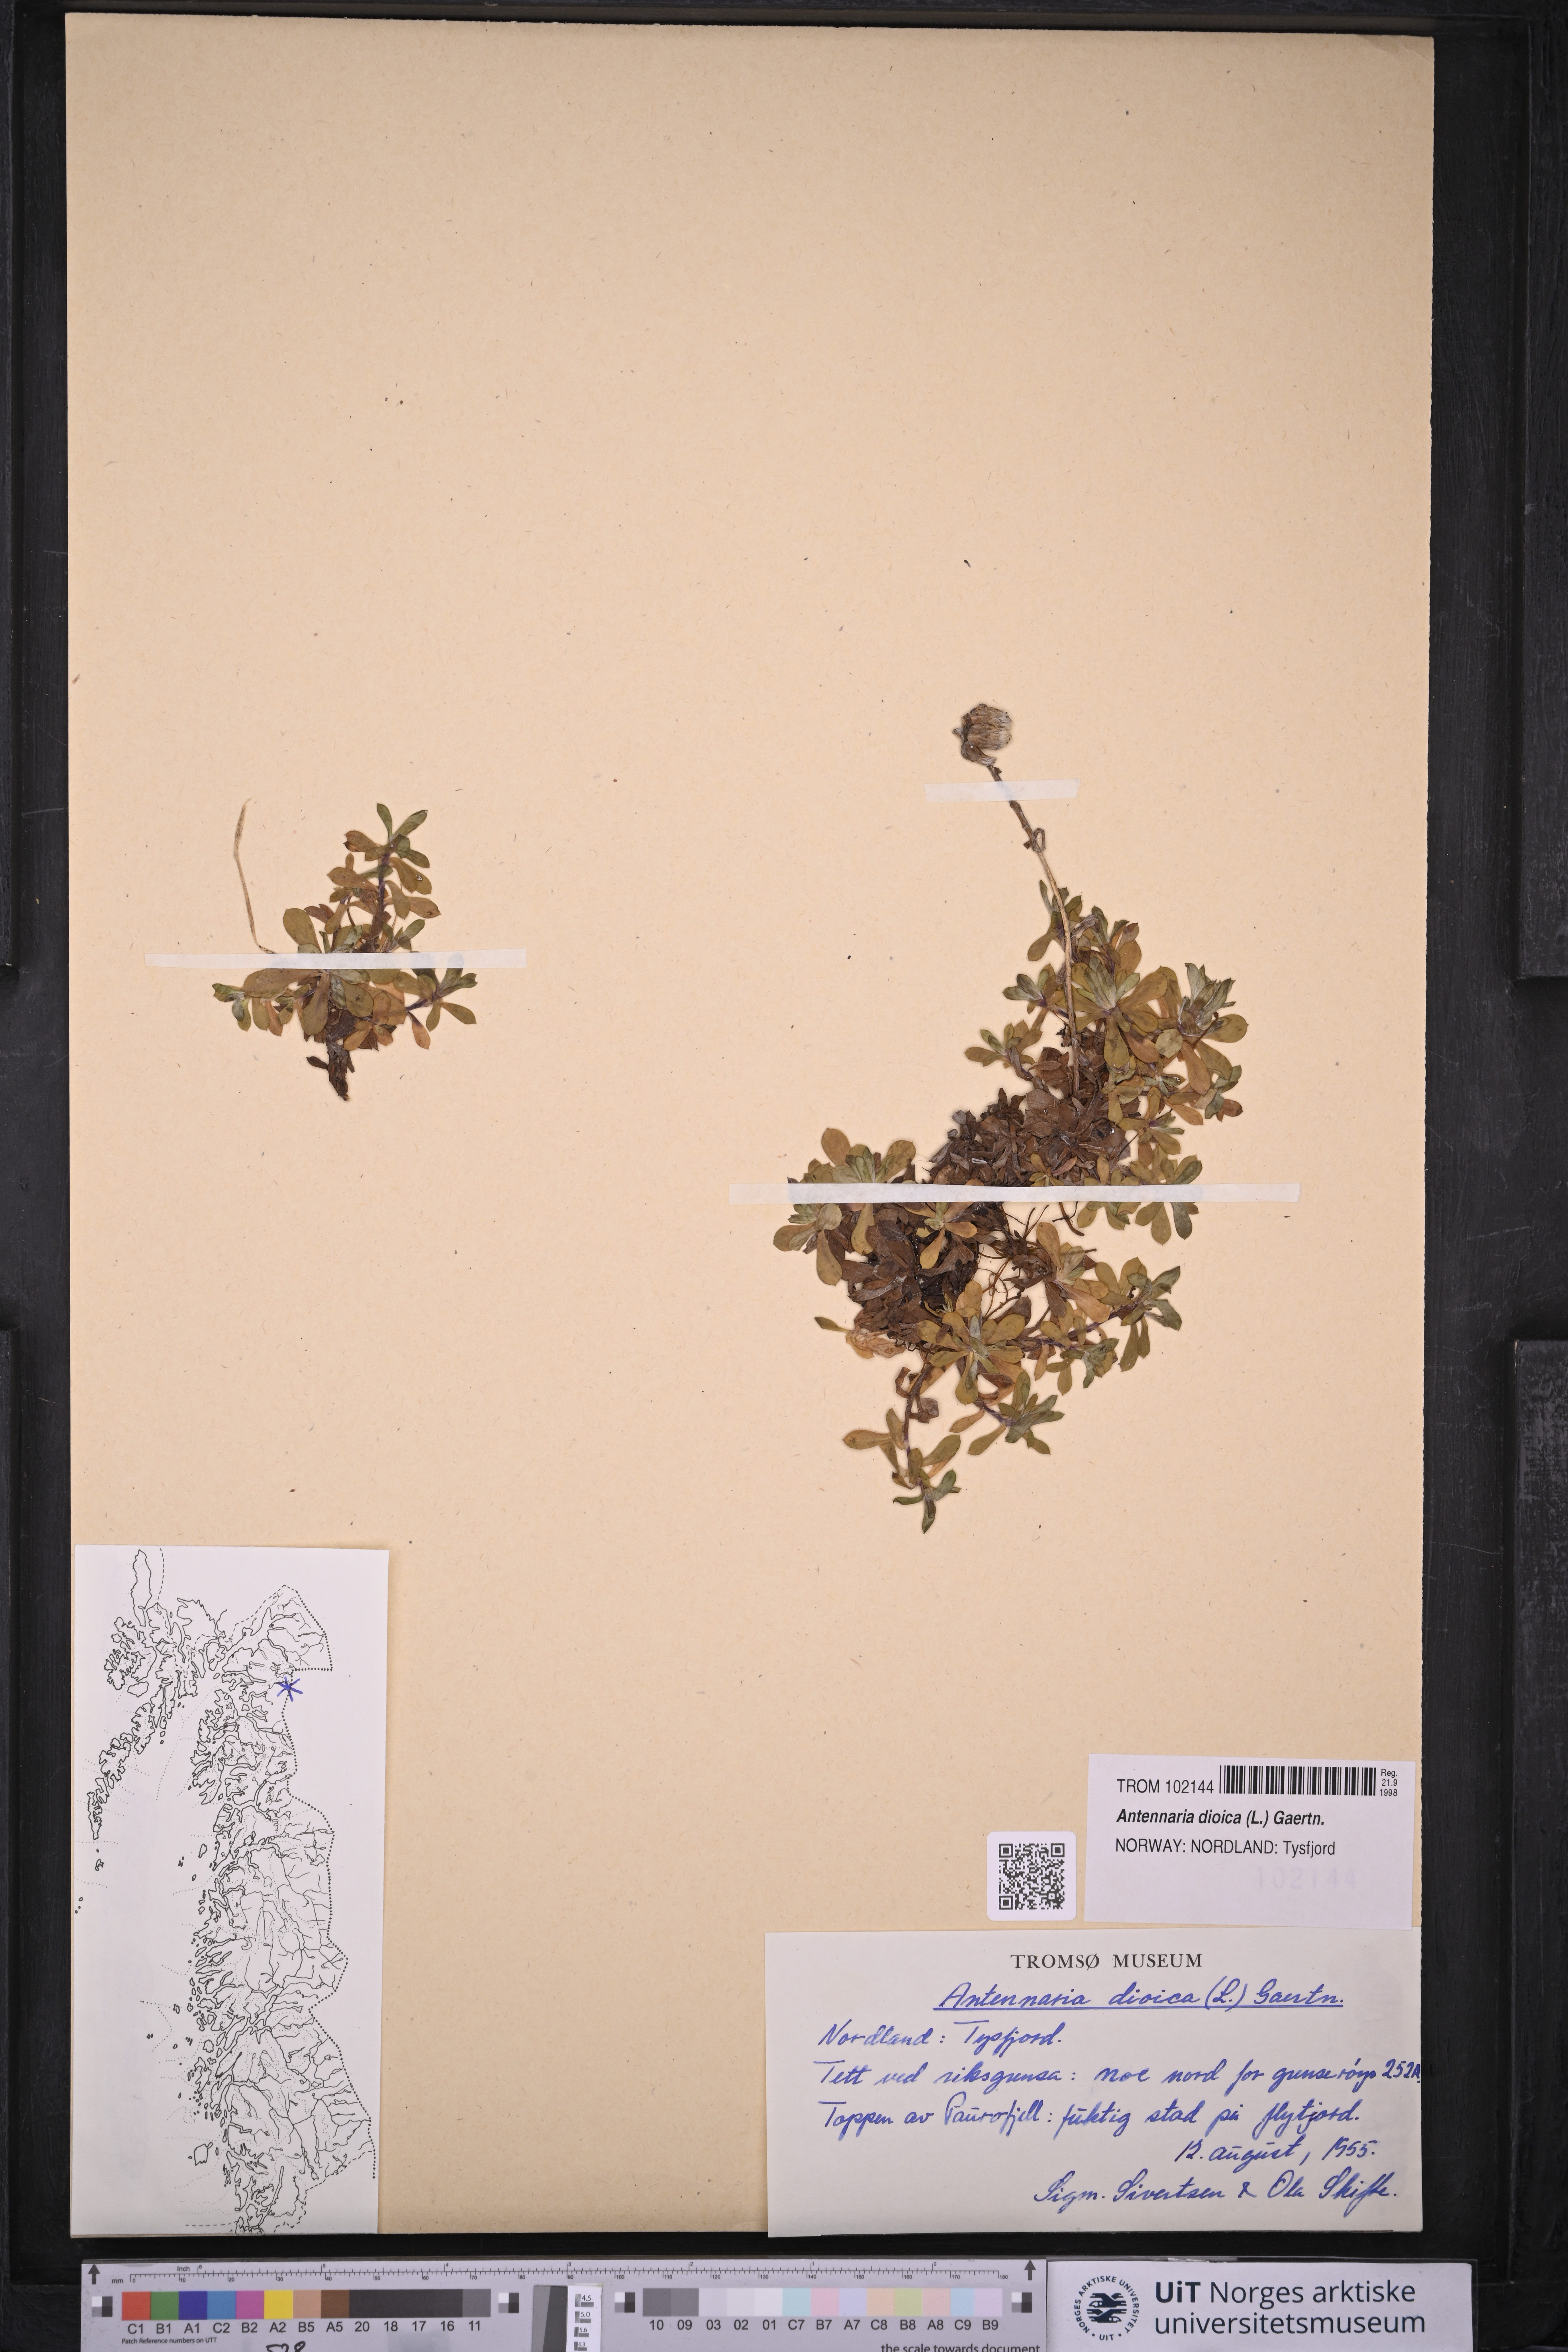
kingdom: Plantae
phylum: Tracheophyta
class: Magnoliopsida
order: Asterales
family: Asteraceae
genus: Antennaria
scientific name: Antennaria dioica
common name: Mountain everlasting
